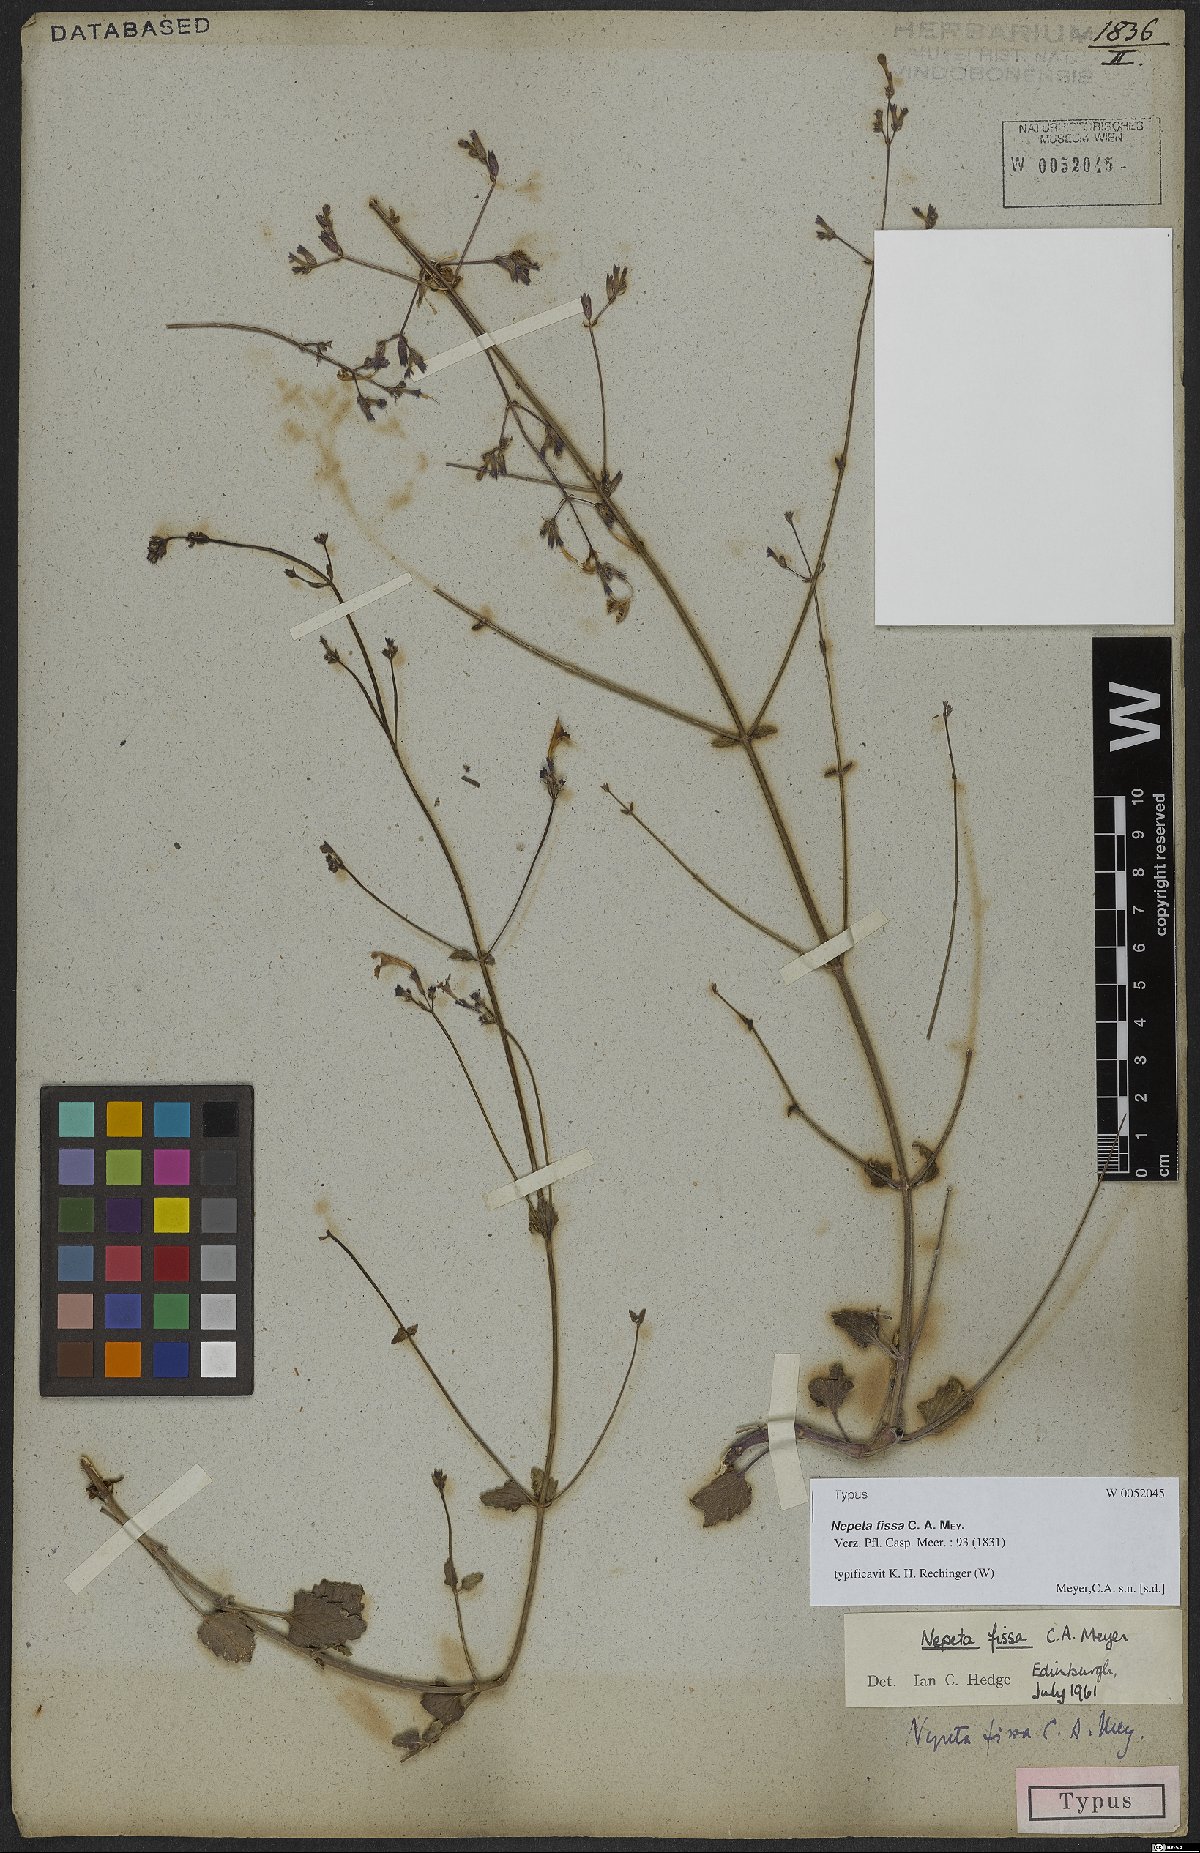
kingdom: Plantae
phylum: Tracheophyta
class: Magnoliopsida
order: Lamiales
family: Lamiaceae
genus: Nepeta
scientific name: Nepeta teucriifolia
